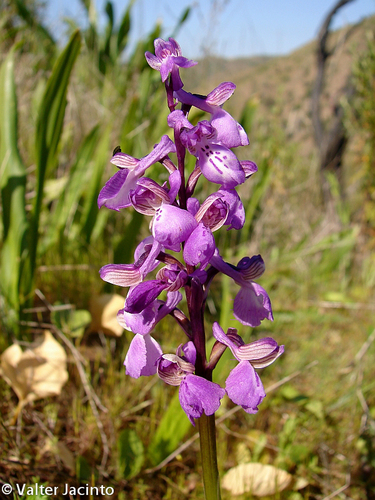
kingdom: Plantae
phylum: Tracheophyta
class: Liliopsida
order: Asparagales
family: Orchidaceae
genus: Anacamptis
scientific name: Anacamptis morio
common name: Green-winged orchid
